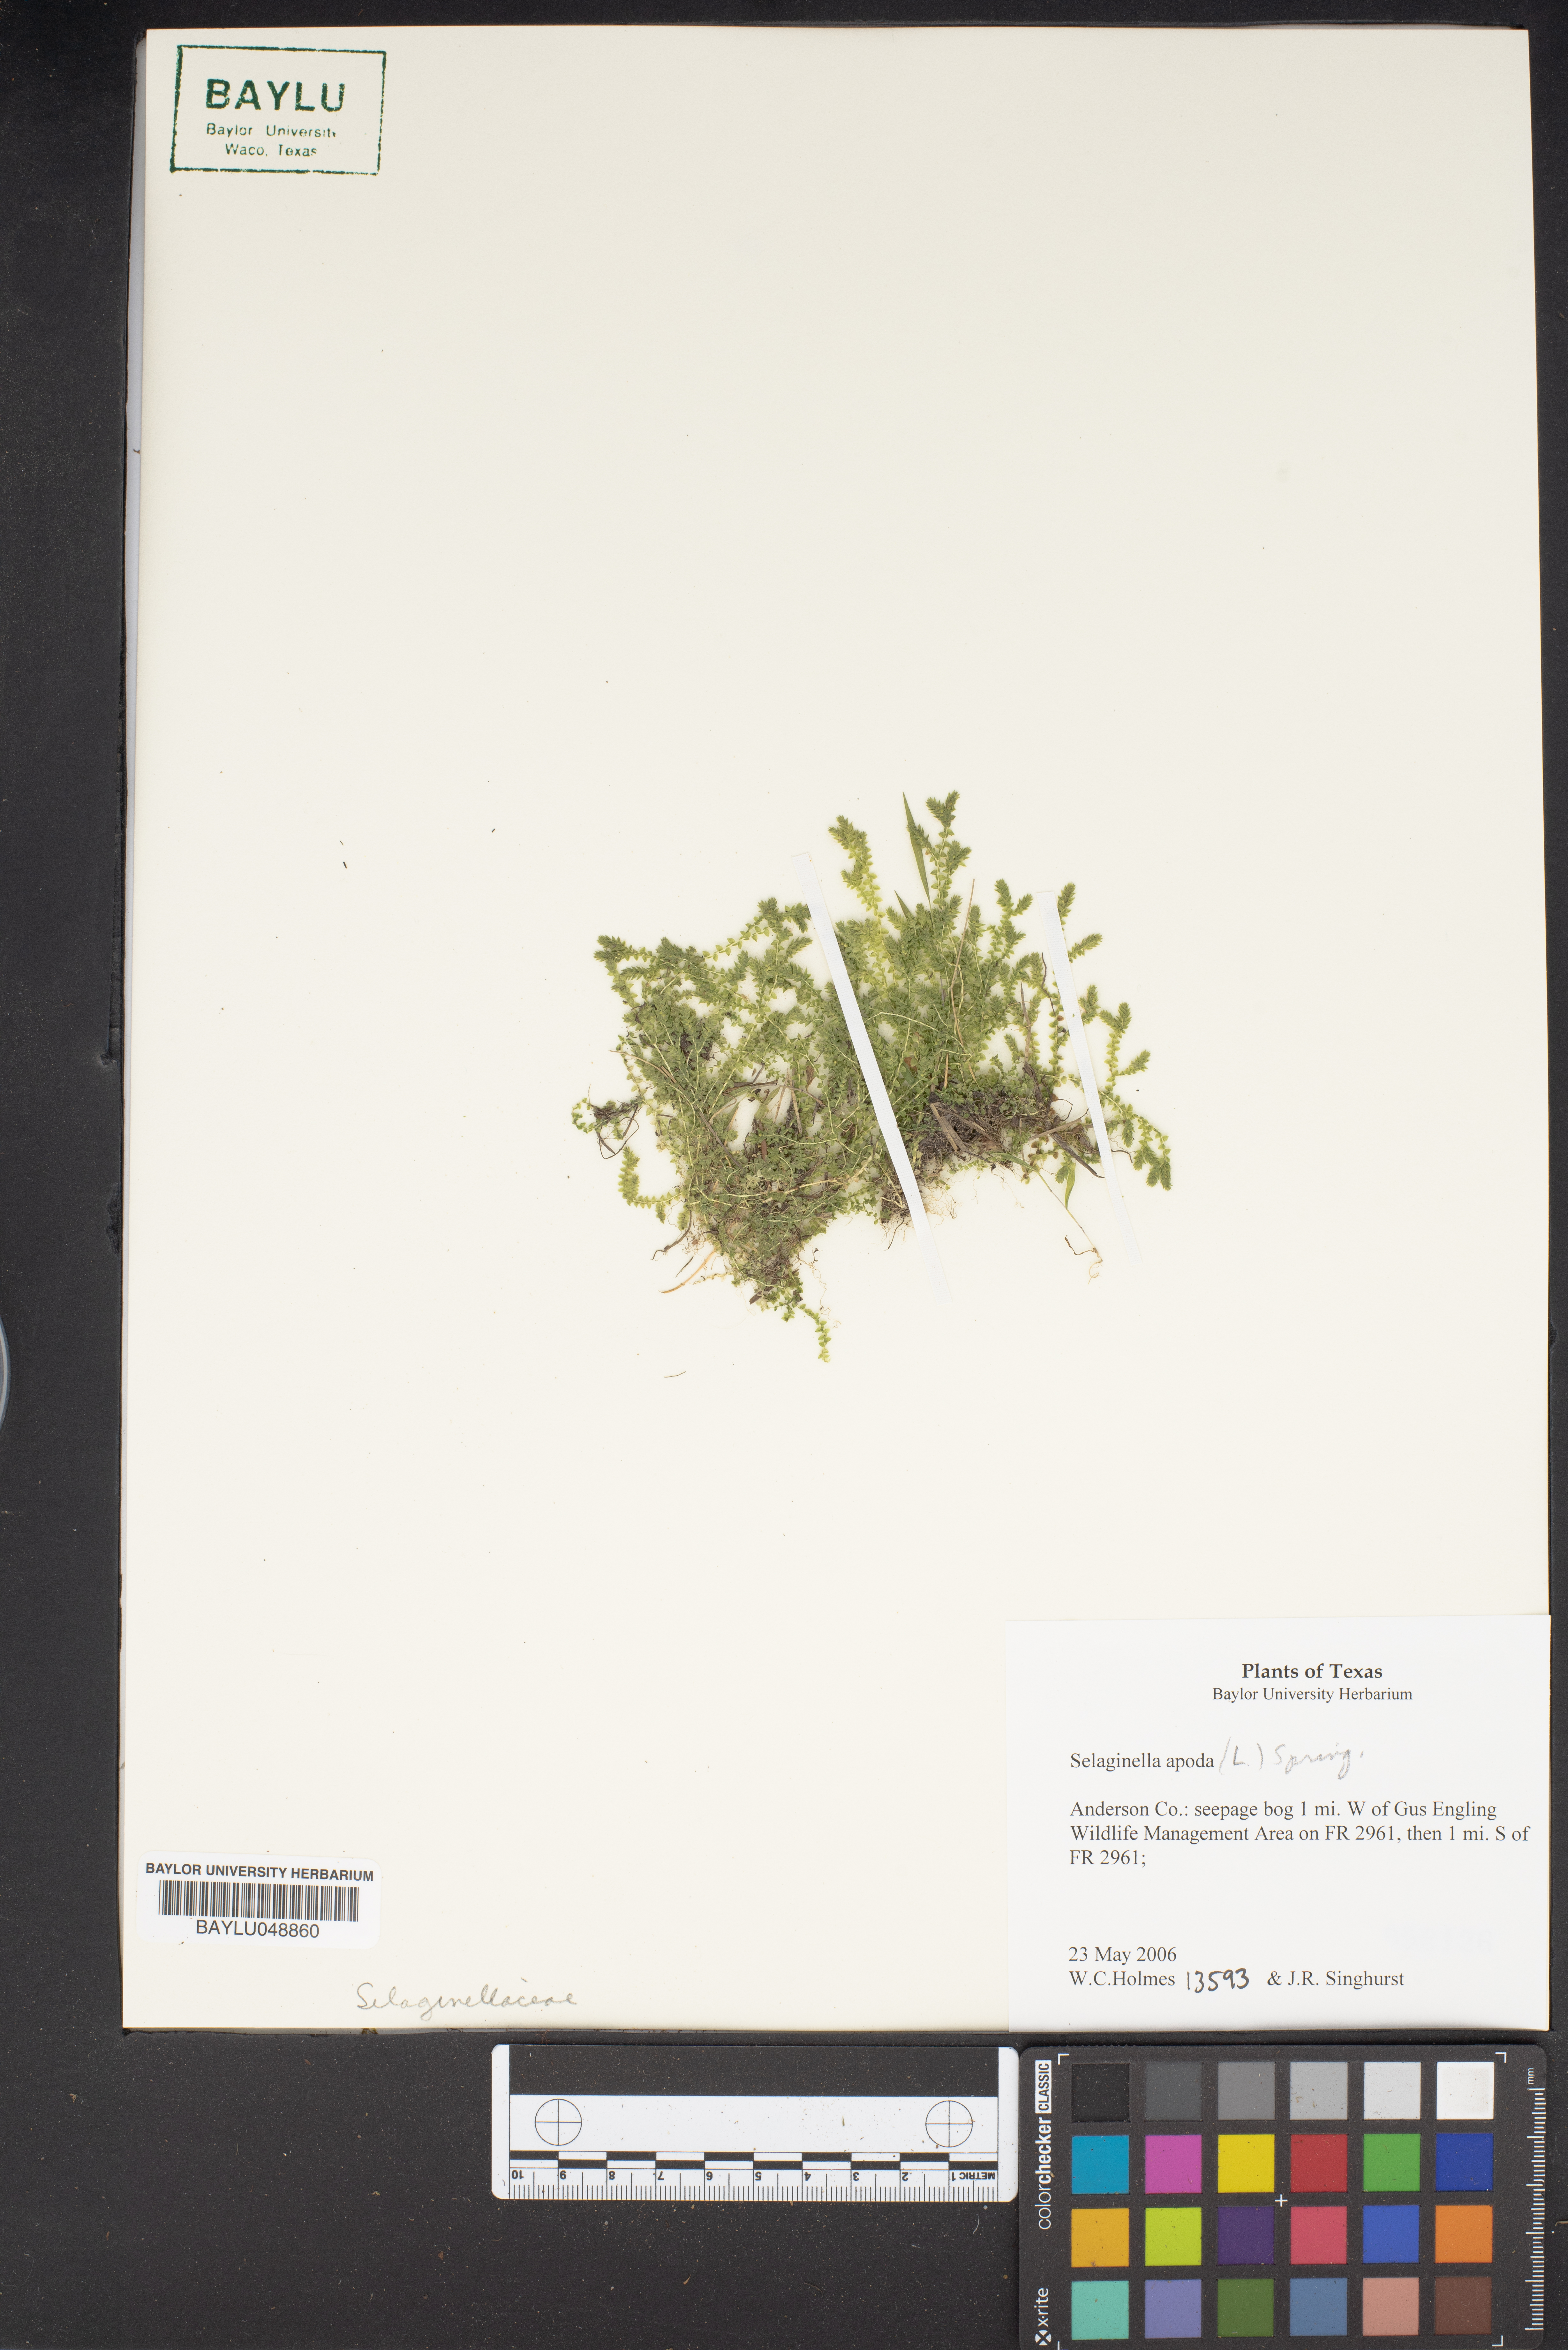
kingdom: Plantae
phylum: Tracheophyta
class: Lycopodiopsida
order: Selaginellales
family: Selaginellaceae
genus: Selaginella
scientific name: Selaginella apoda
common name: Creeping spikemoss
